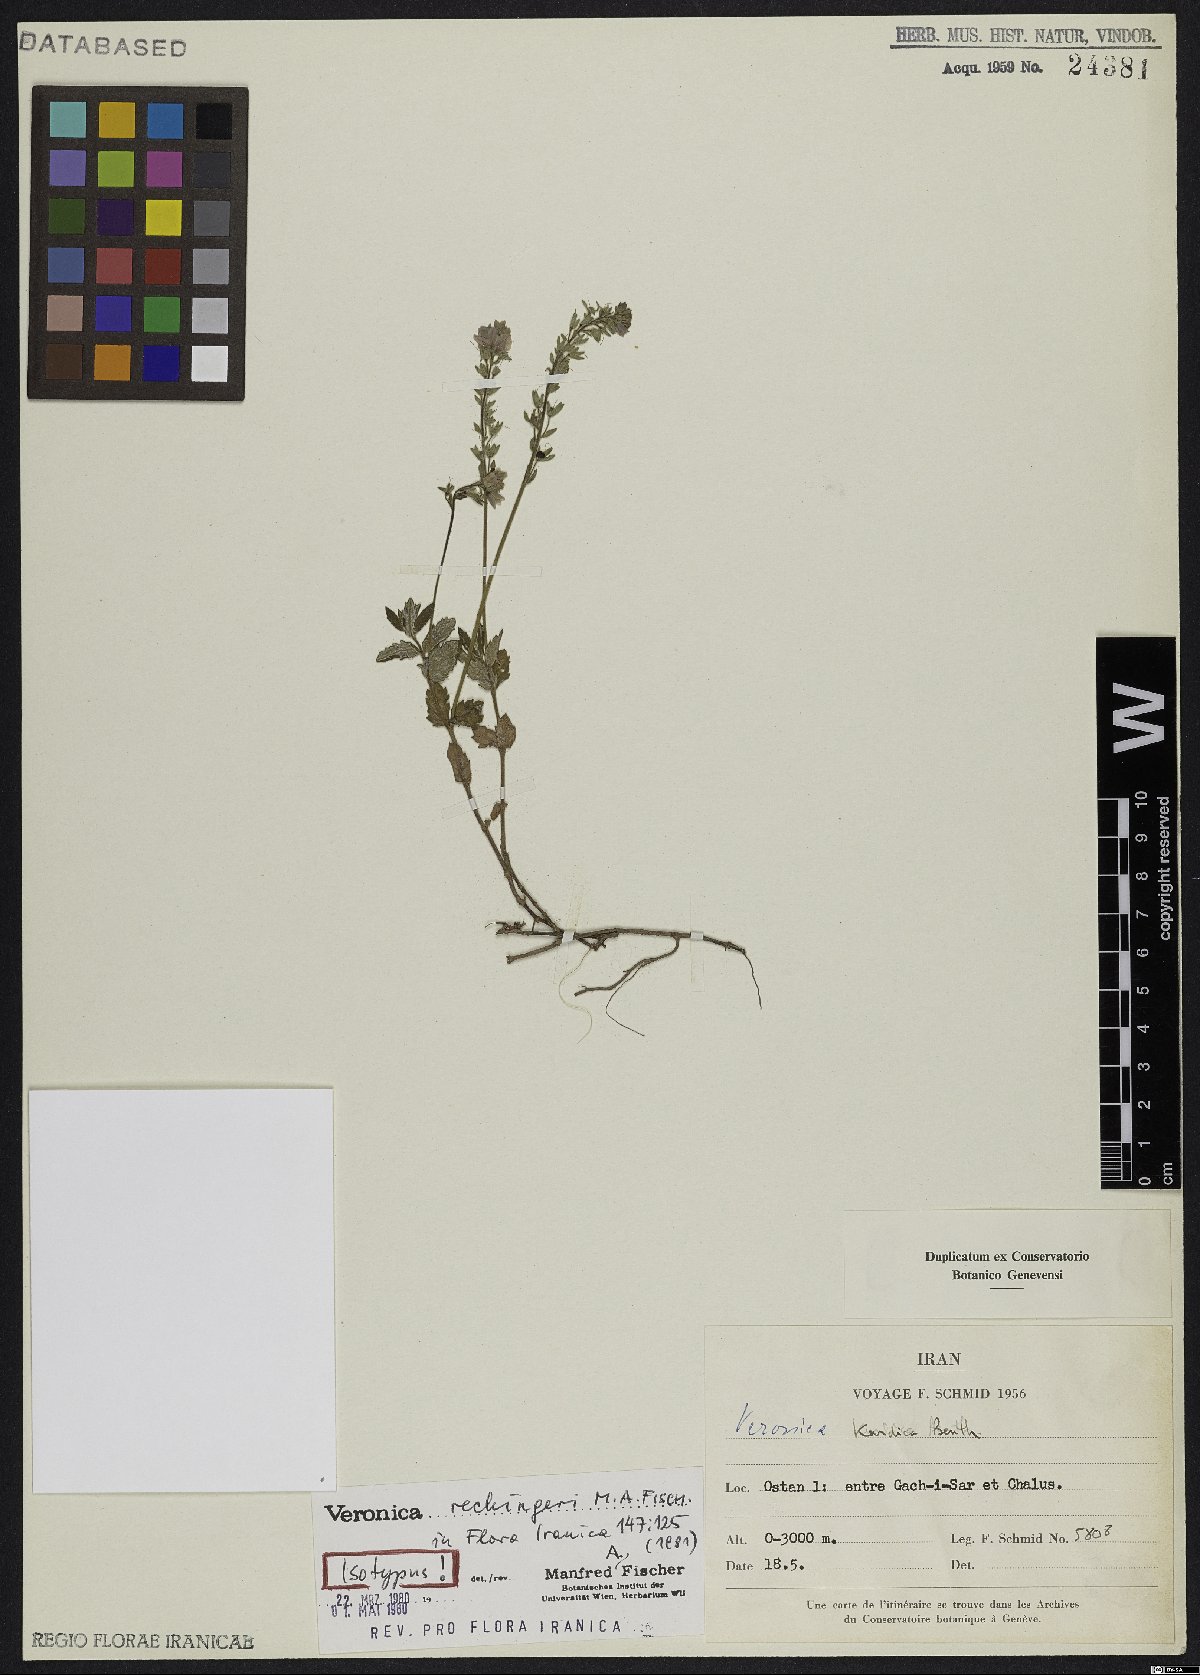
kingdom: Plantae
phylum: Tracheophyta
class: Magnoliopsida
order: Lamiales
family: Plantaginaceae
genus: Veronica
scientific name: Veronica rechingeri
